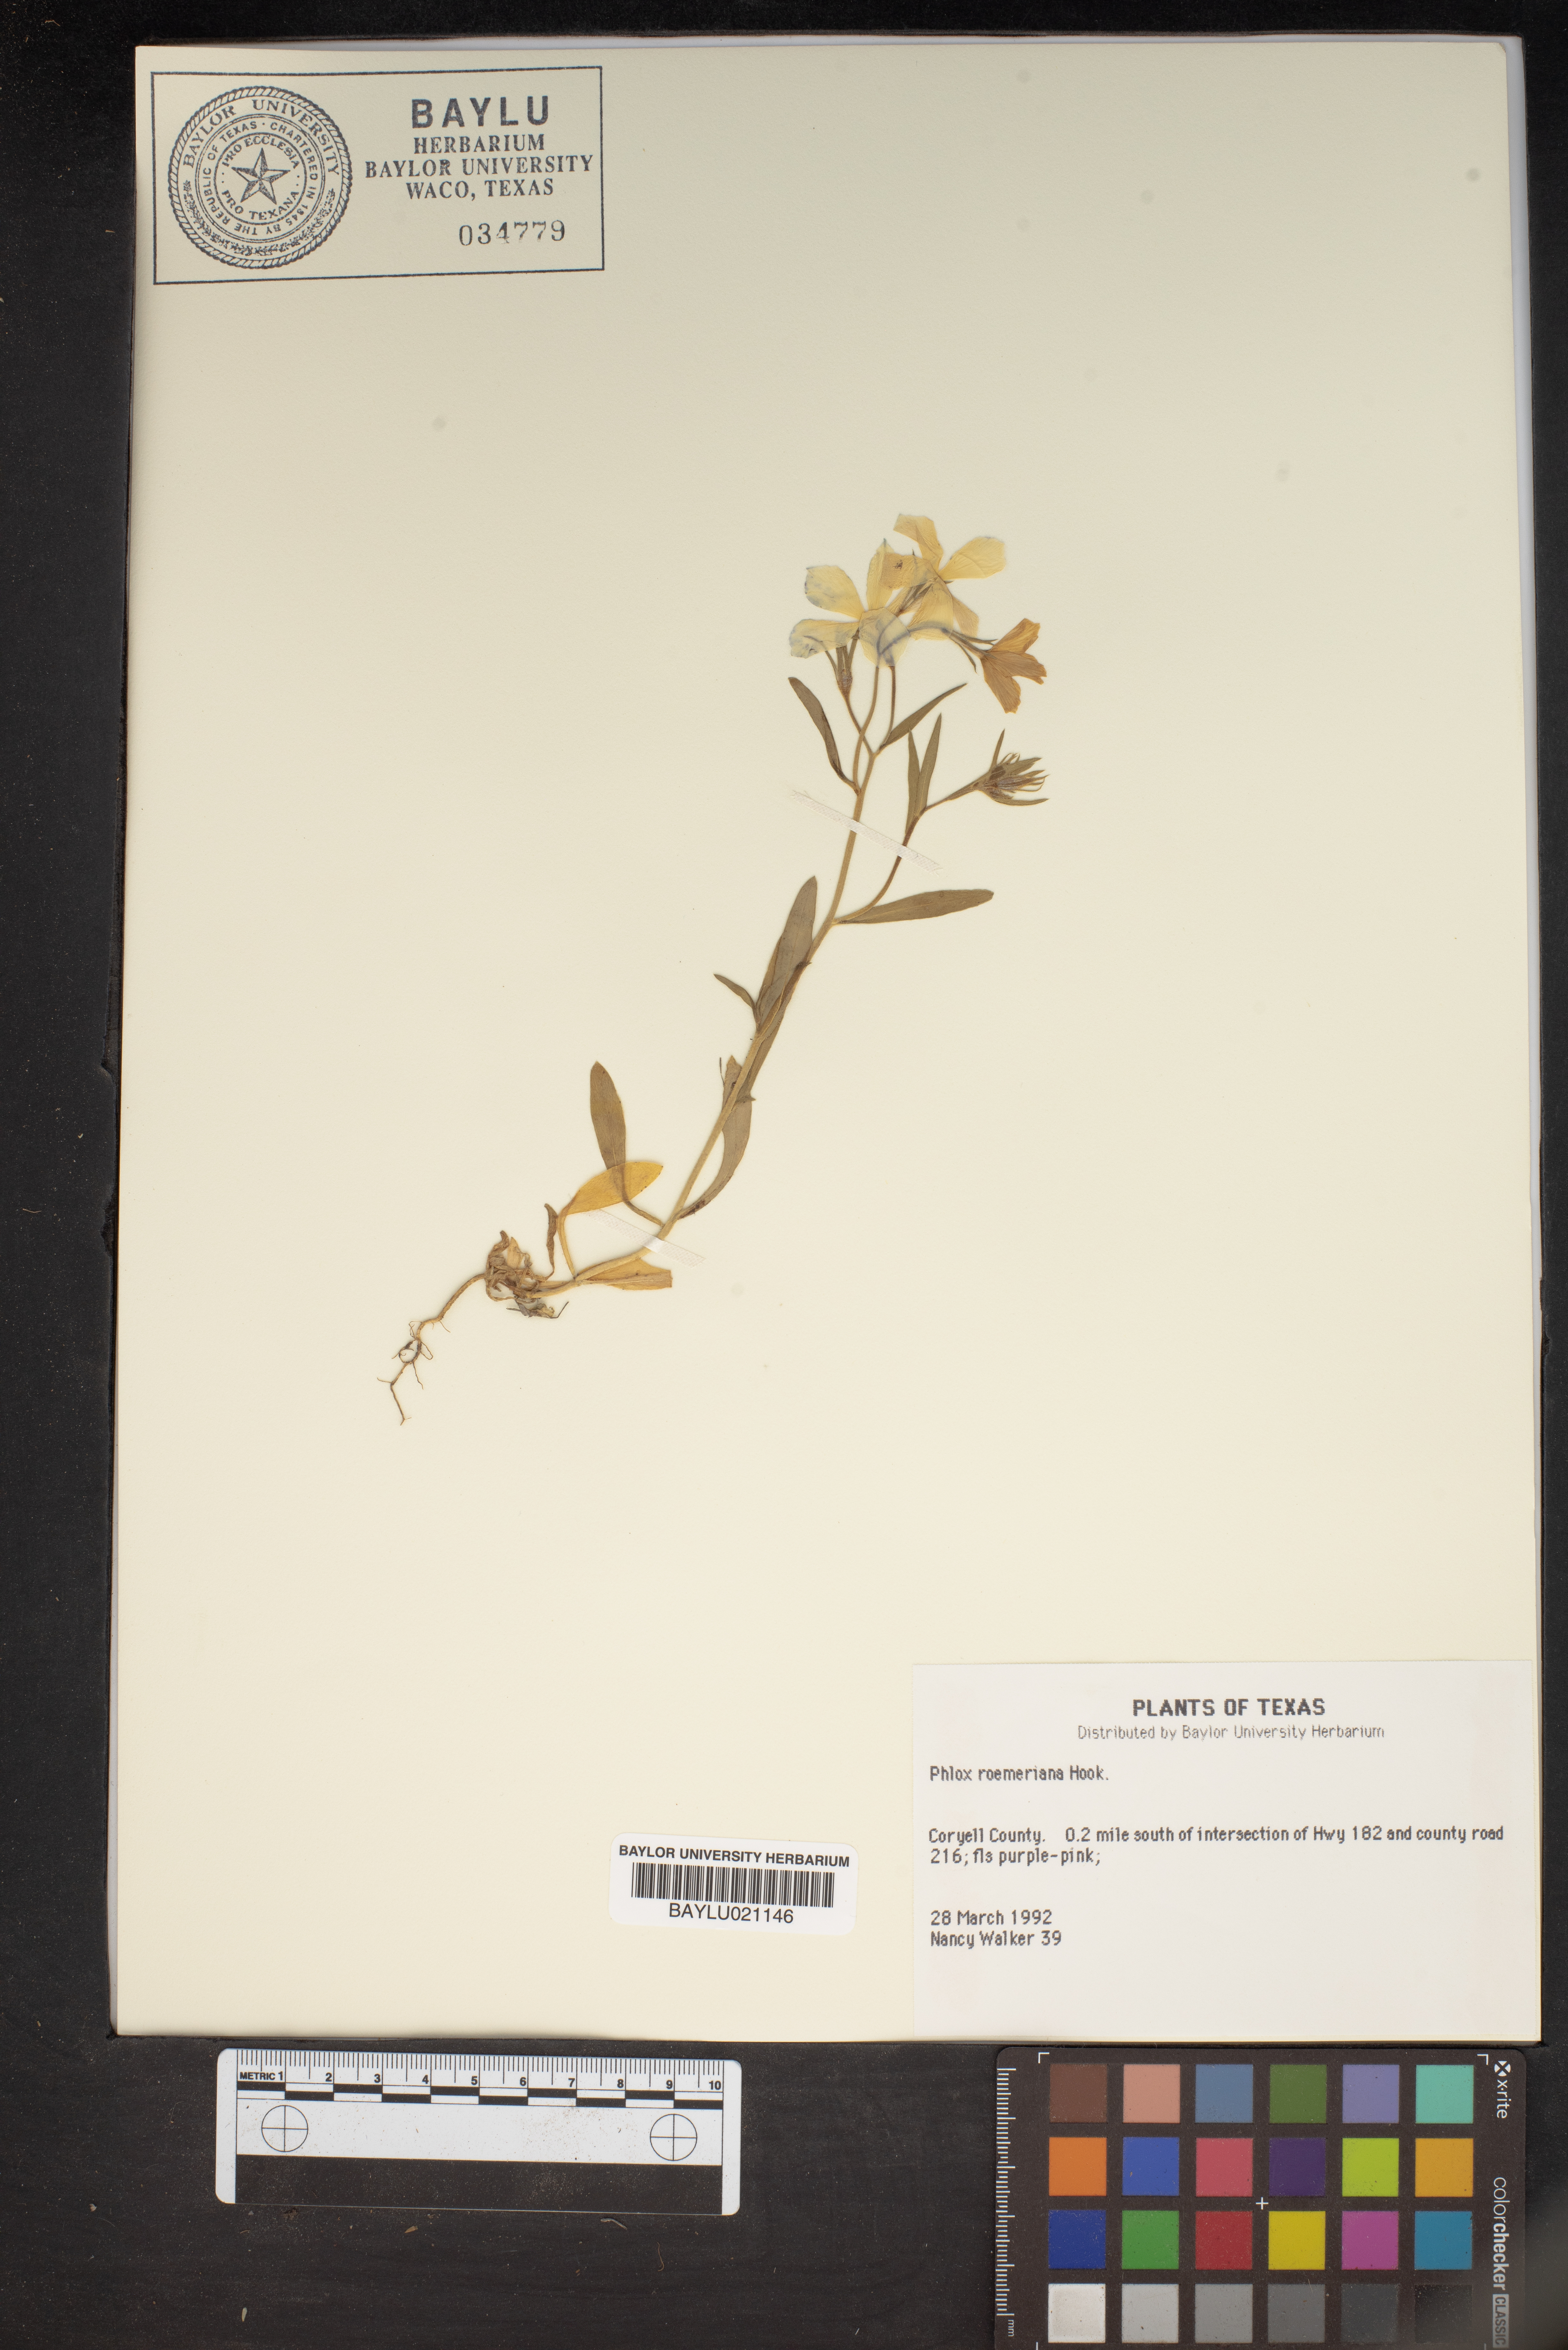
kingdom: Plantae
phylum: Tracheophyta
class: Magnoliopsida
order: Ericales
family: Polemoniaceae
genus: Phlox
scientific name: Phlox roemeriana
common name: Roemer's phlox
